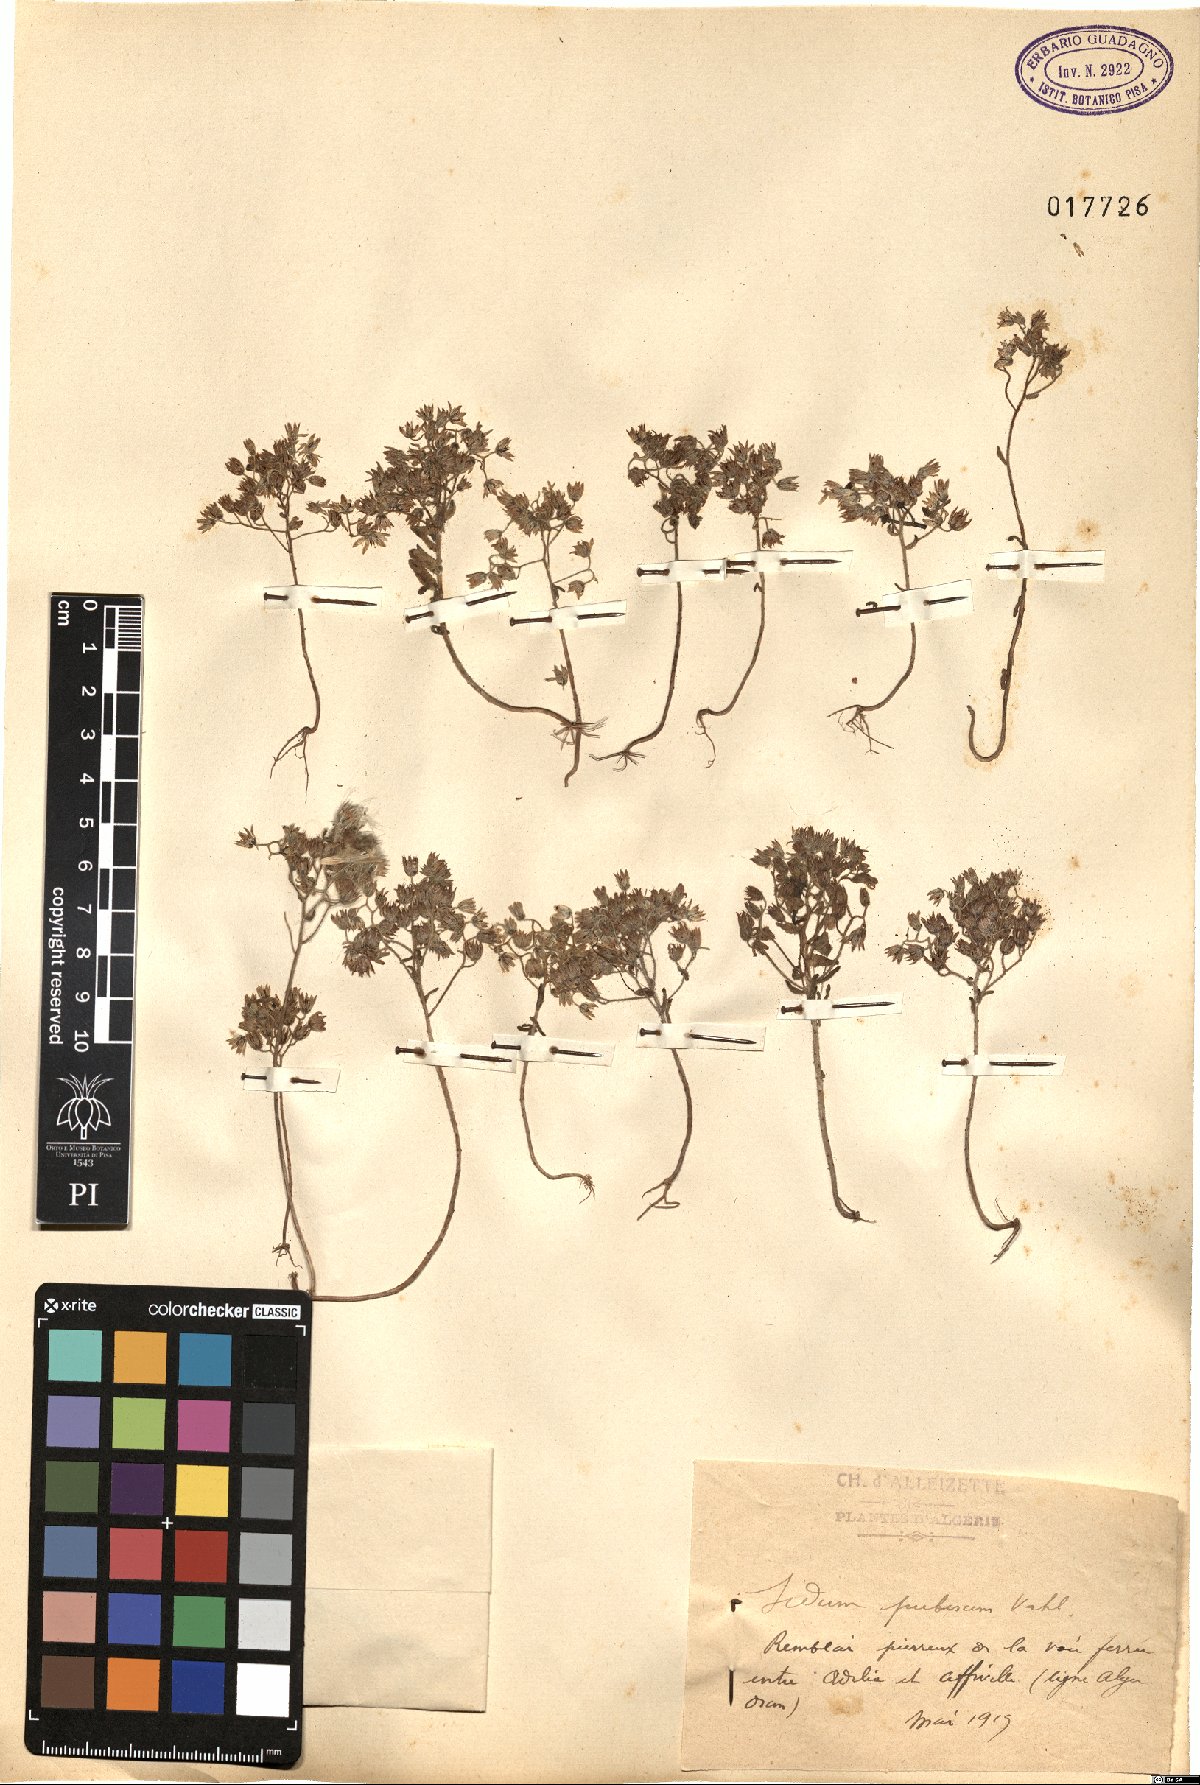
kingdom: Plantae
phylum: Tracheophyta
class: Magnoliopsida
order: Saxifragales
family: Crassulaceae
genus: Sedum
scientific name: Sedum pubescens
